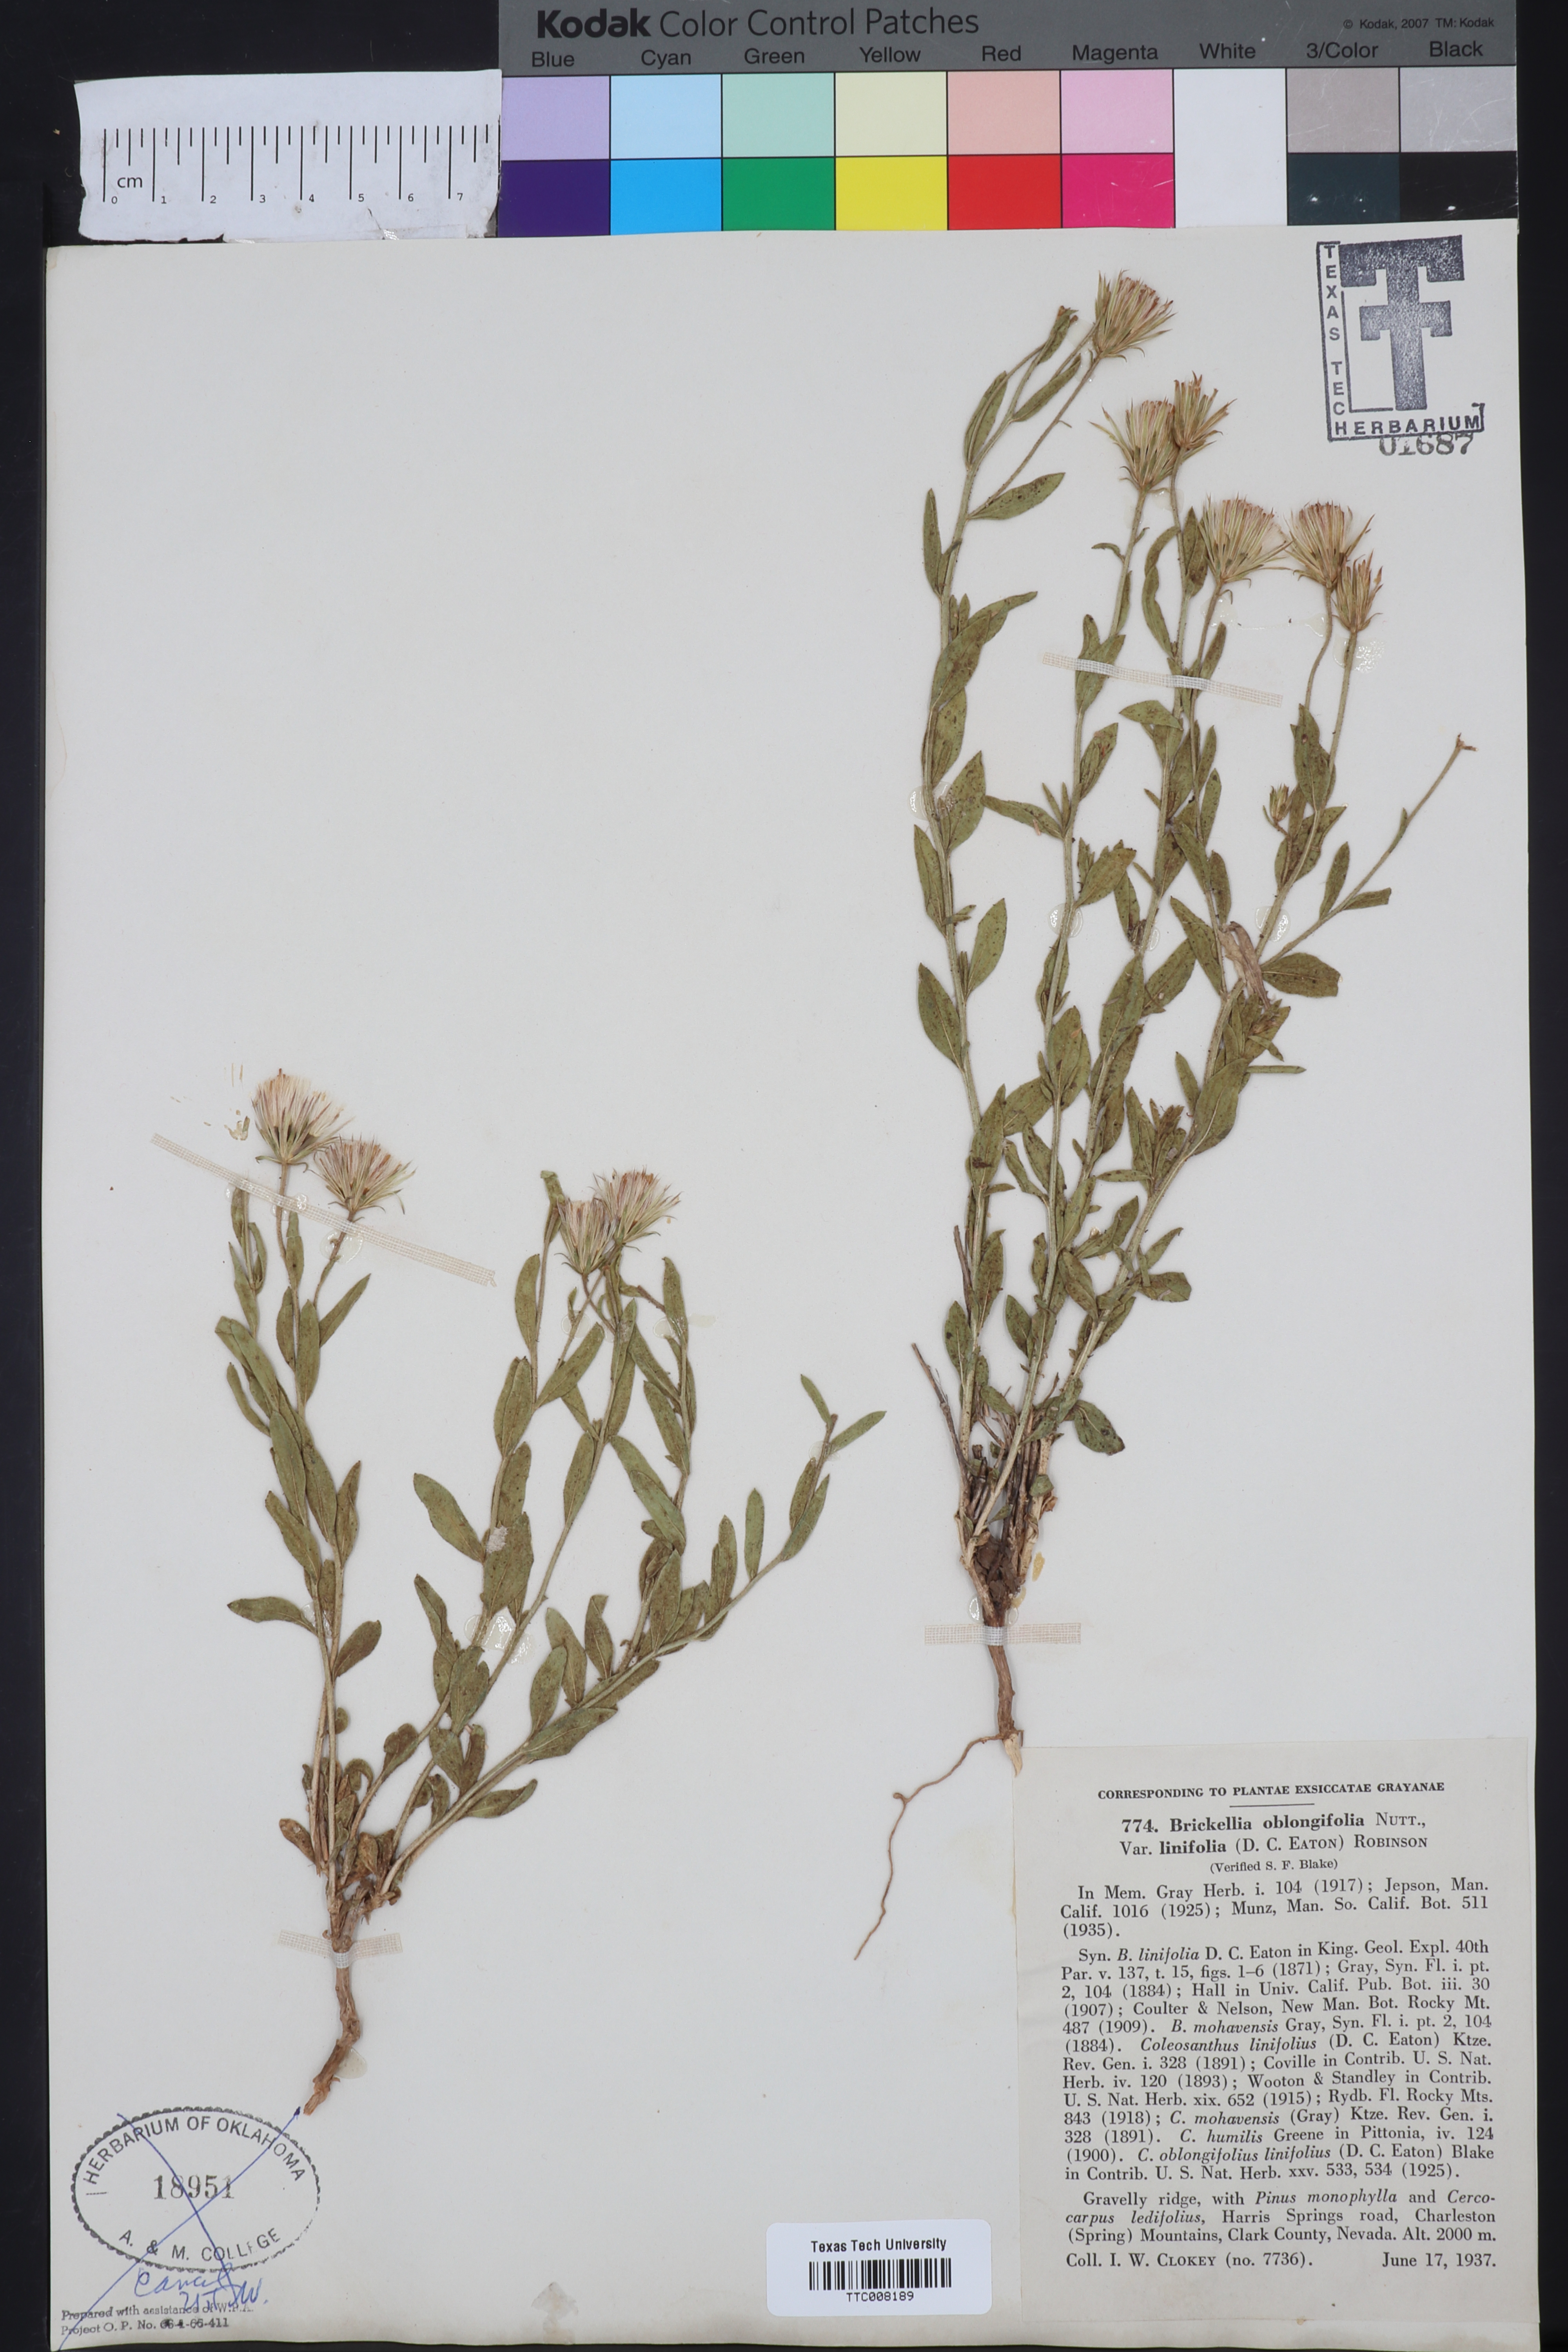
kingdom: Plantae
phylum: Tracheophyta
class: Magnoliopsida
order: Asterales
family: Asteraceae
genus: Brickellia
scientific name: Brickellia oblongifolia
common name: Mojave brickellbush
